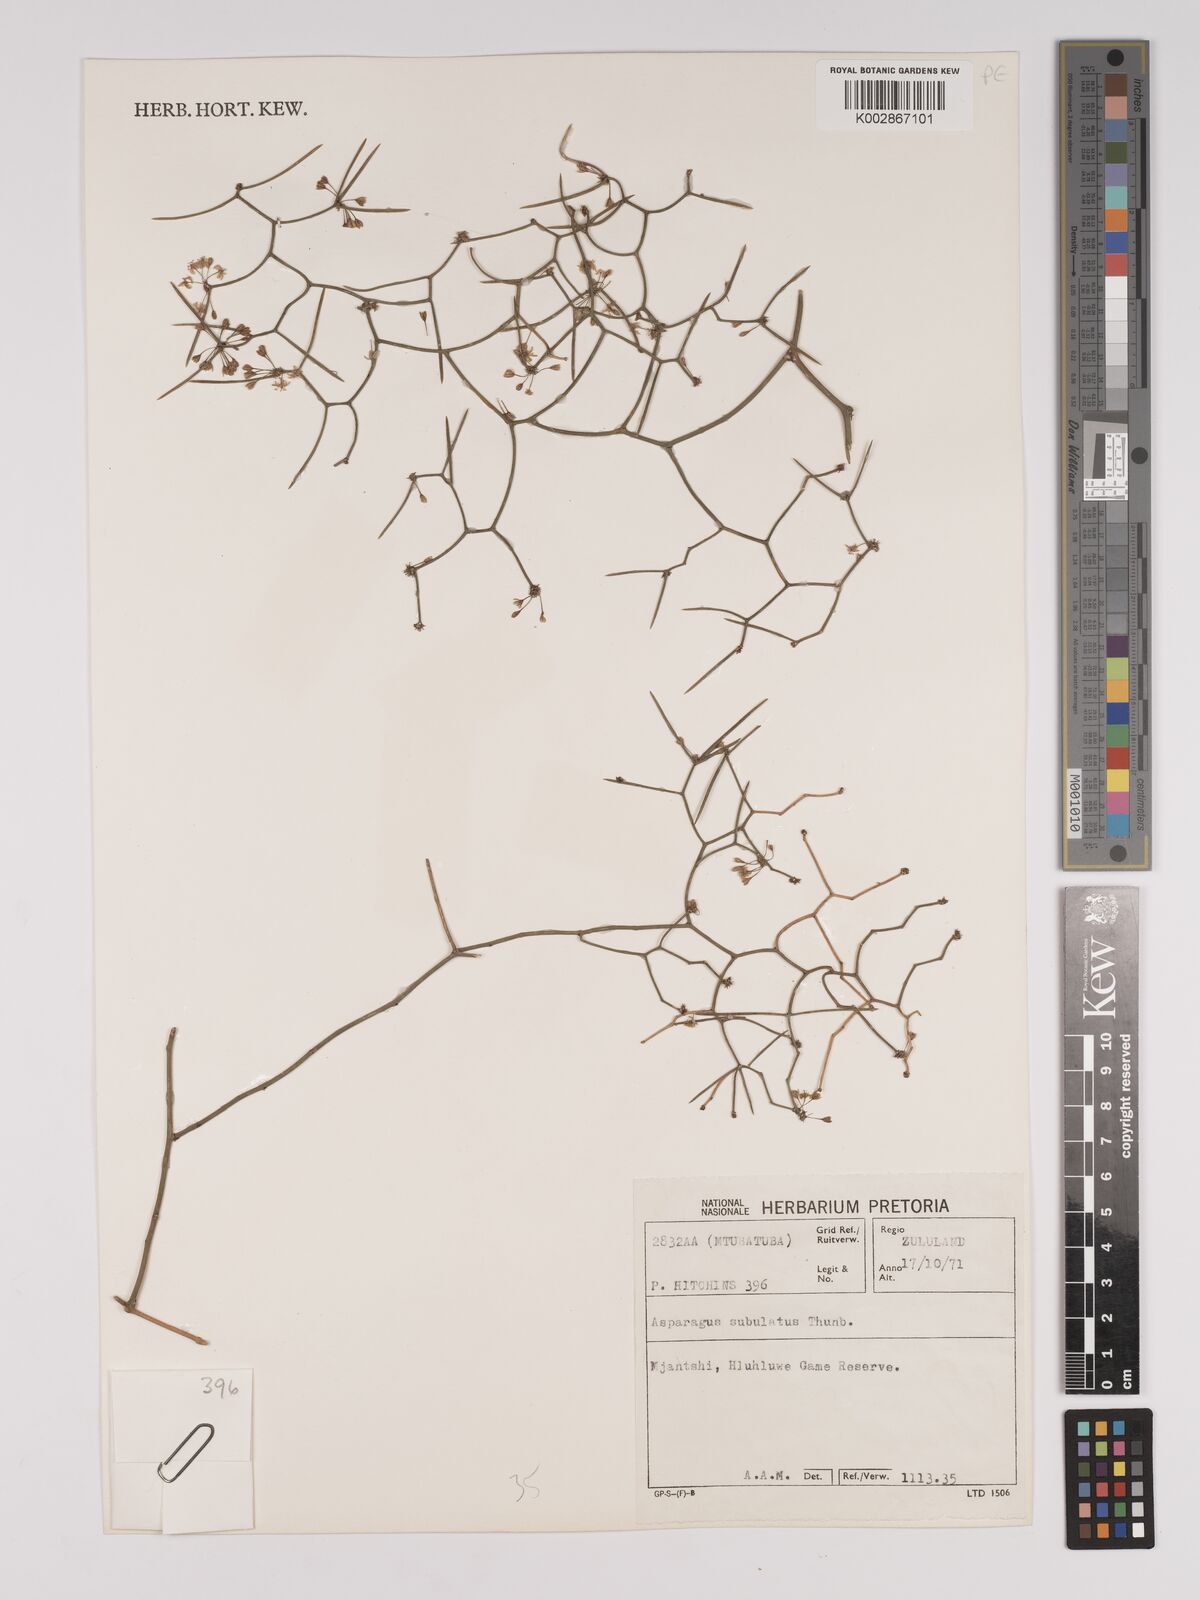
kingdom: Plantae
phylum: Tracheophyta
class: Liliopsida
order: Asparagales
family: Asparagaceae
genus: Asparagus
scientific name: Asparagus subulatus
